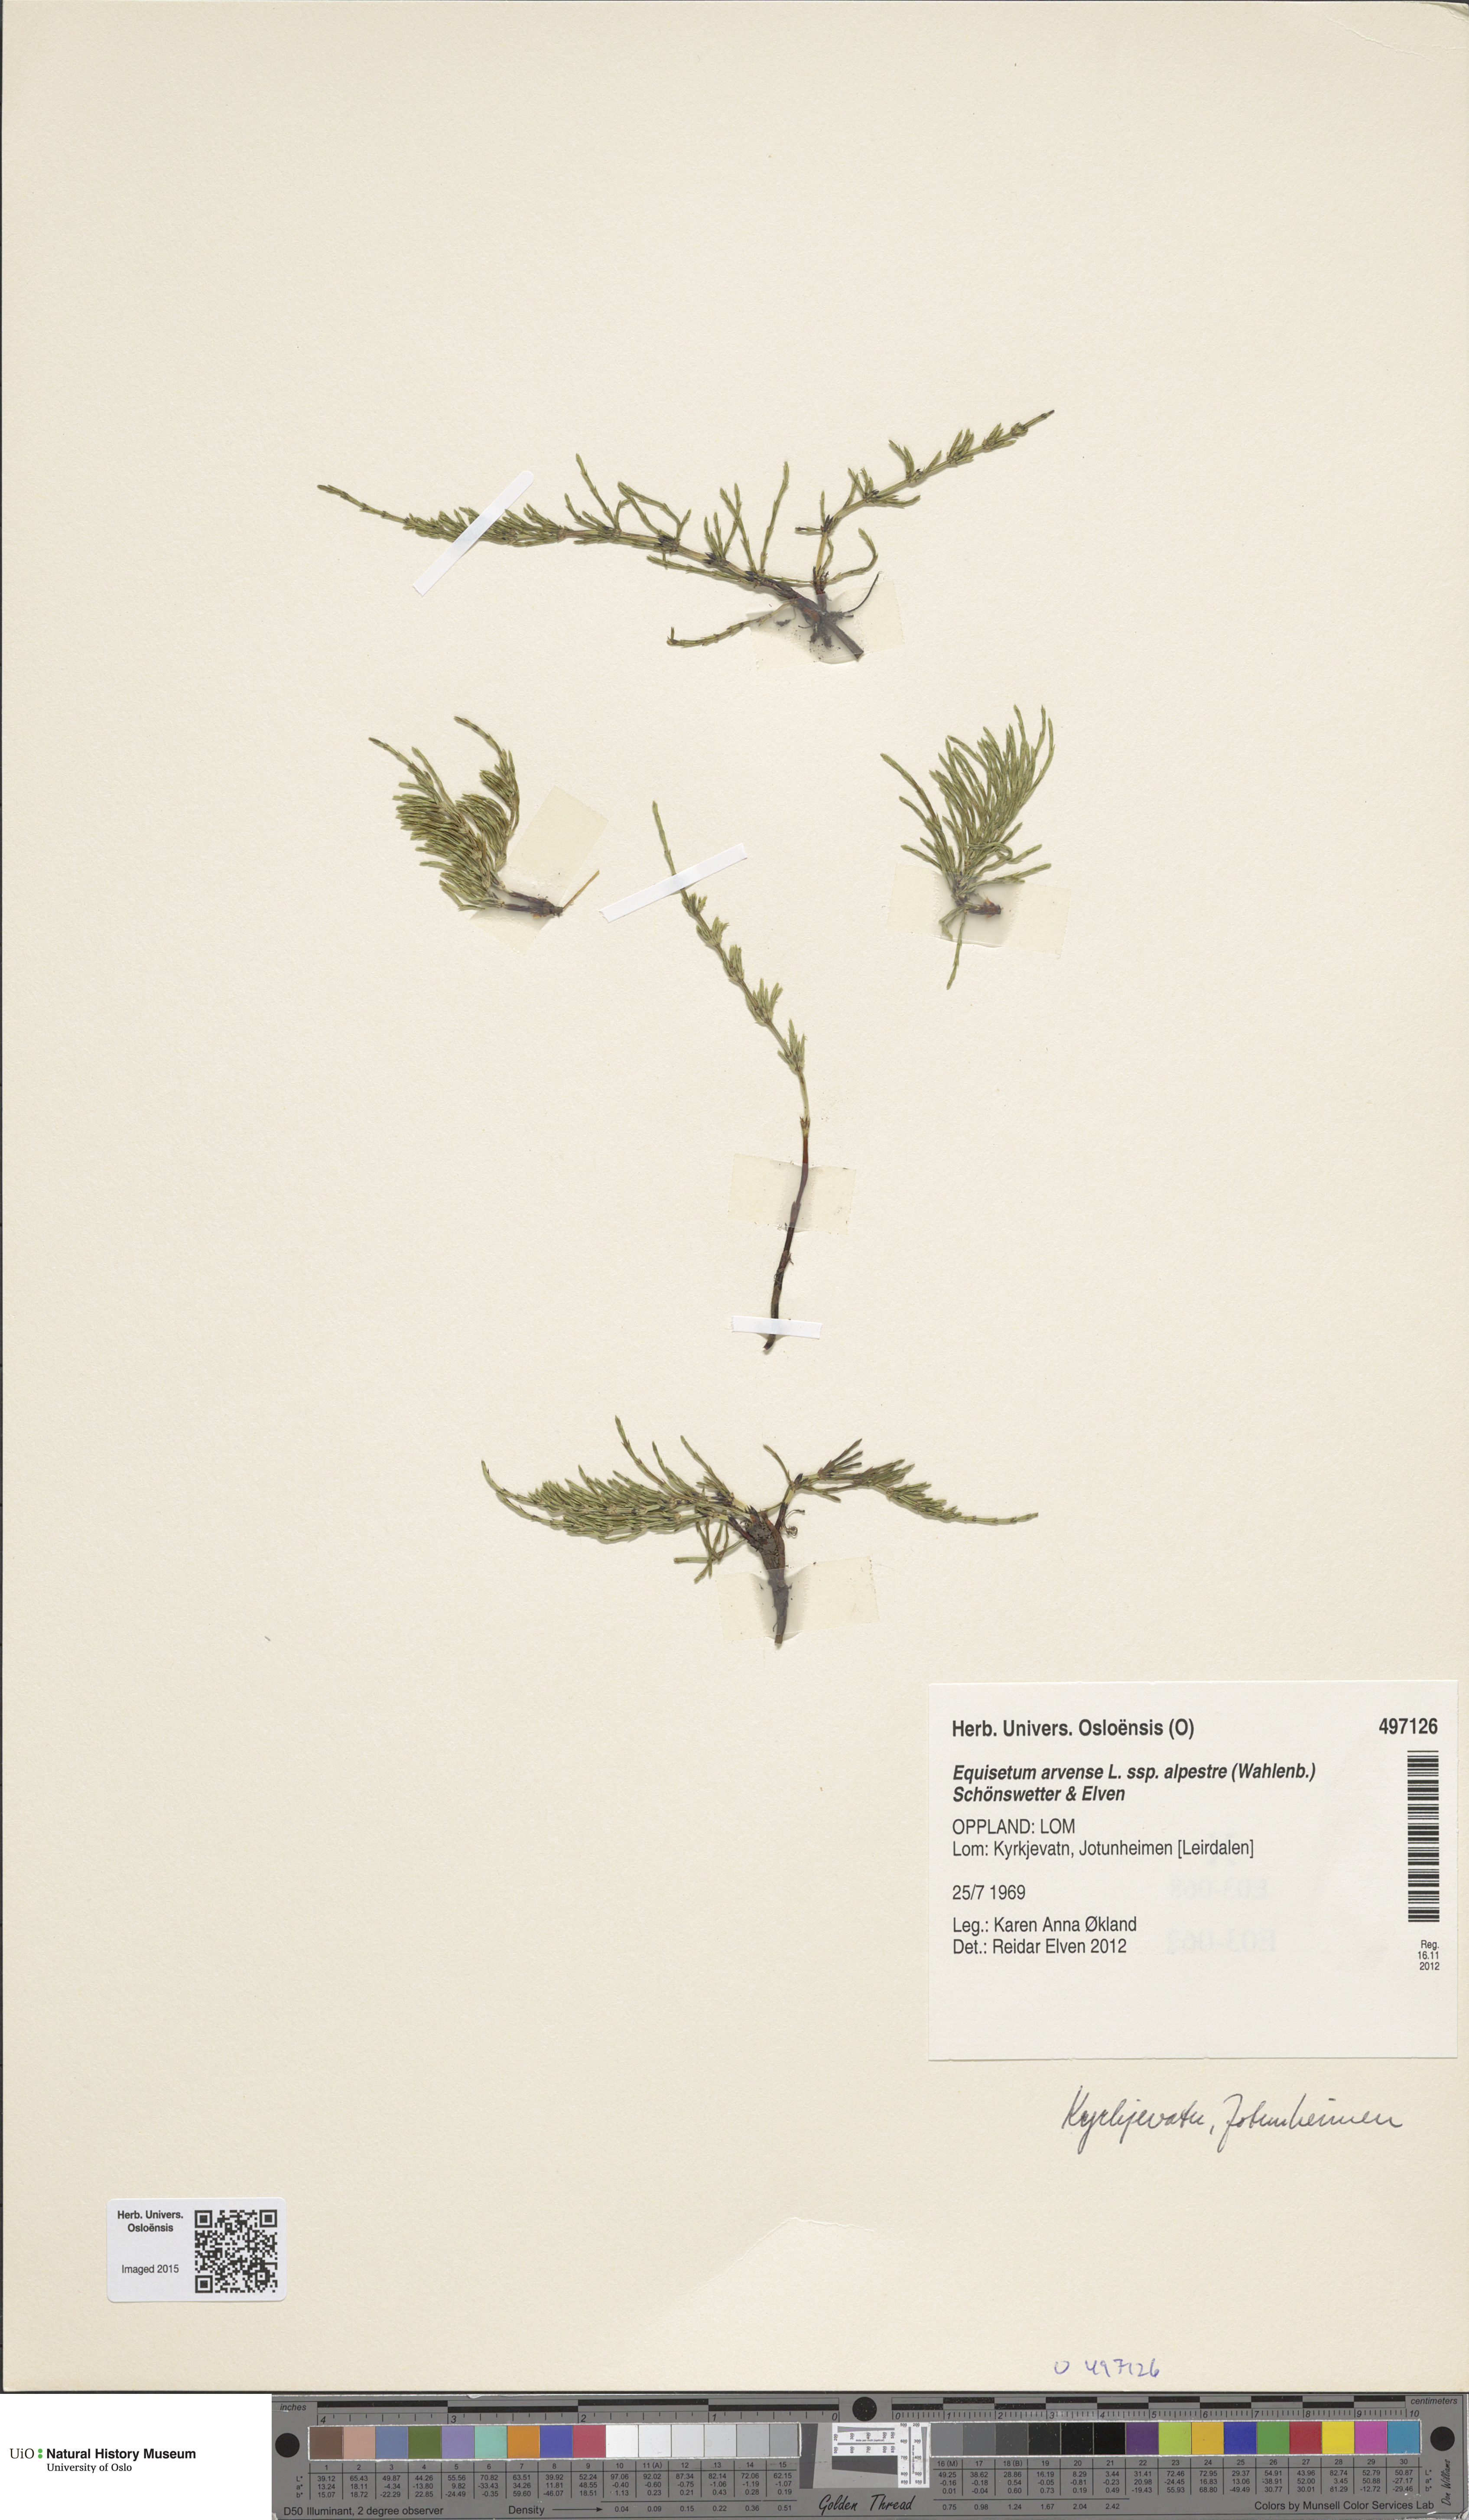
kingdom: Plantae
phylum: Tracheophyta
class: Polypodiopsida
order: Equisetales
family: Equisetaceae
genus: Equisetum
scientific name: Equisetum arvense
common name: Field horsetail
